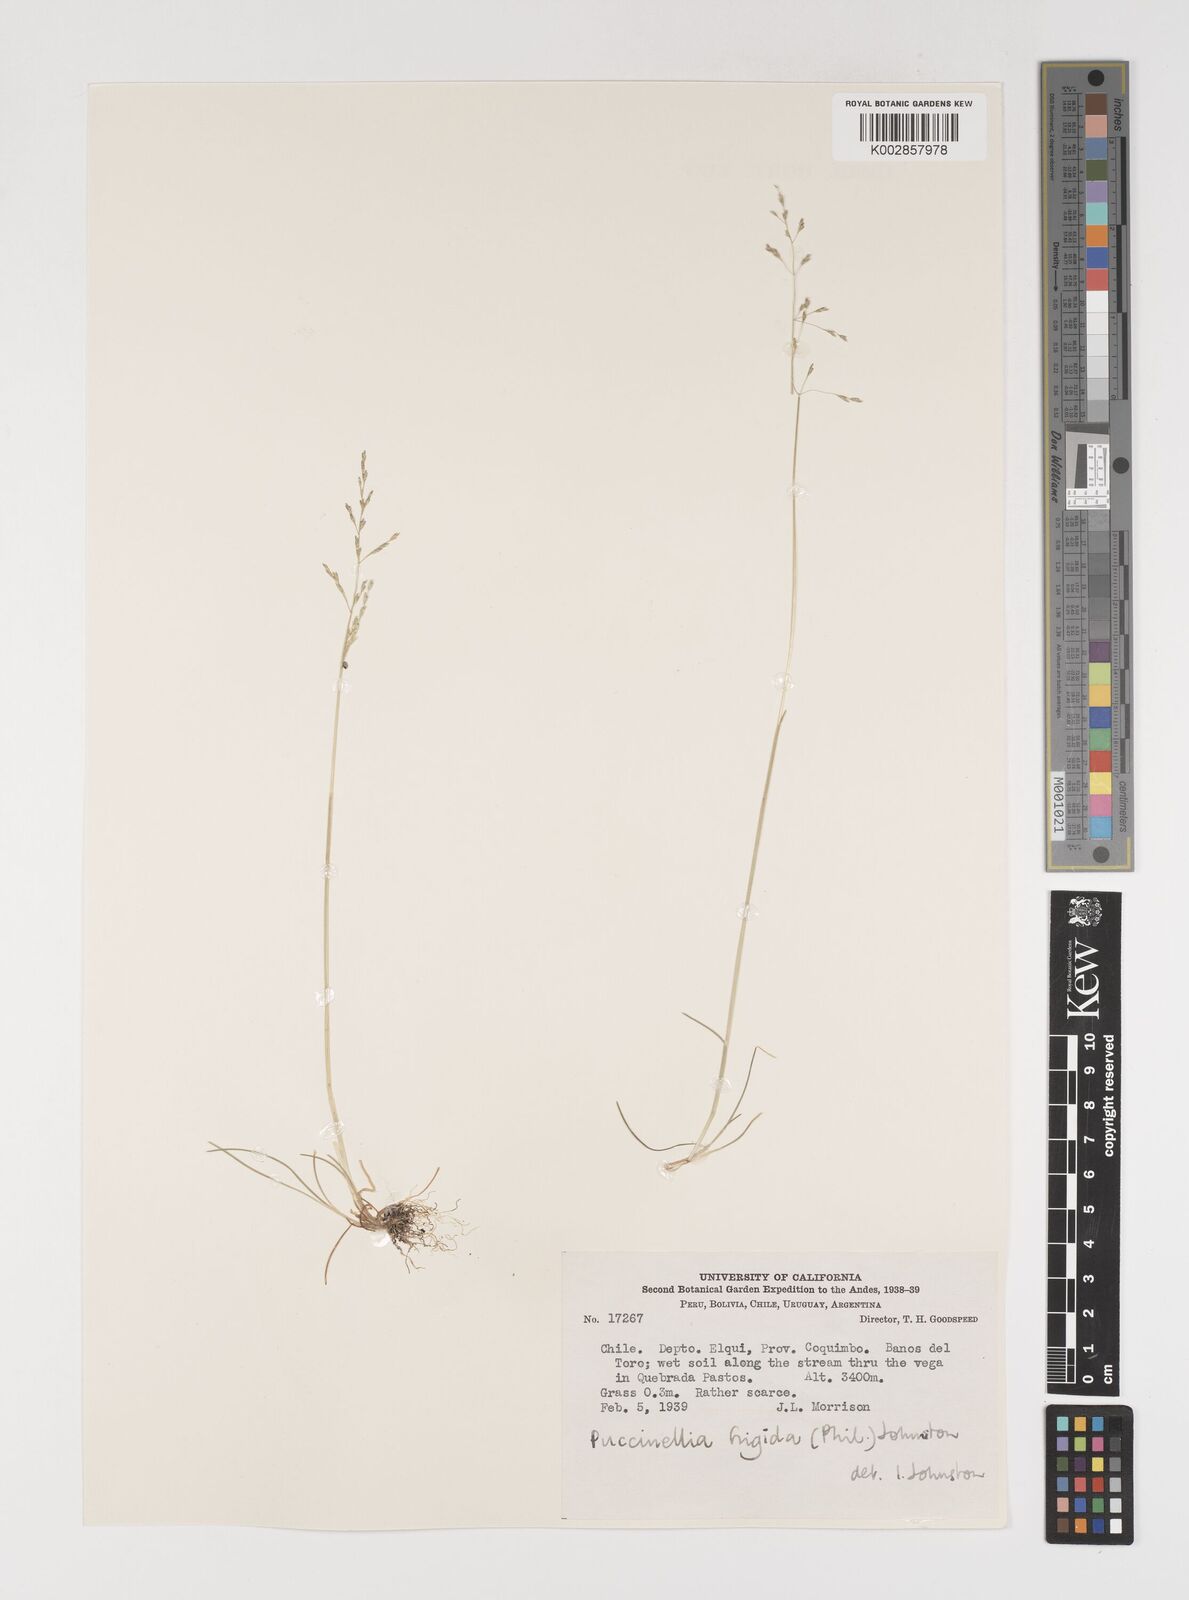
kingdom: Plantae
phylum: Tracheophyta
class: Liliopsida
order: Poales
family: Poaceae
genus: Puccinellia
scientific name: Puccinellia frigida
